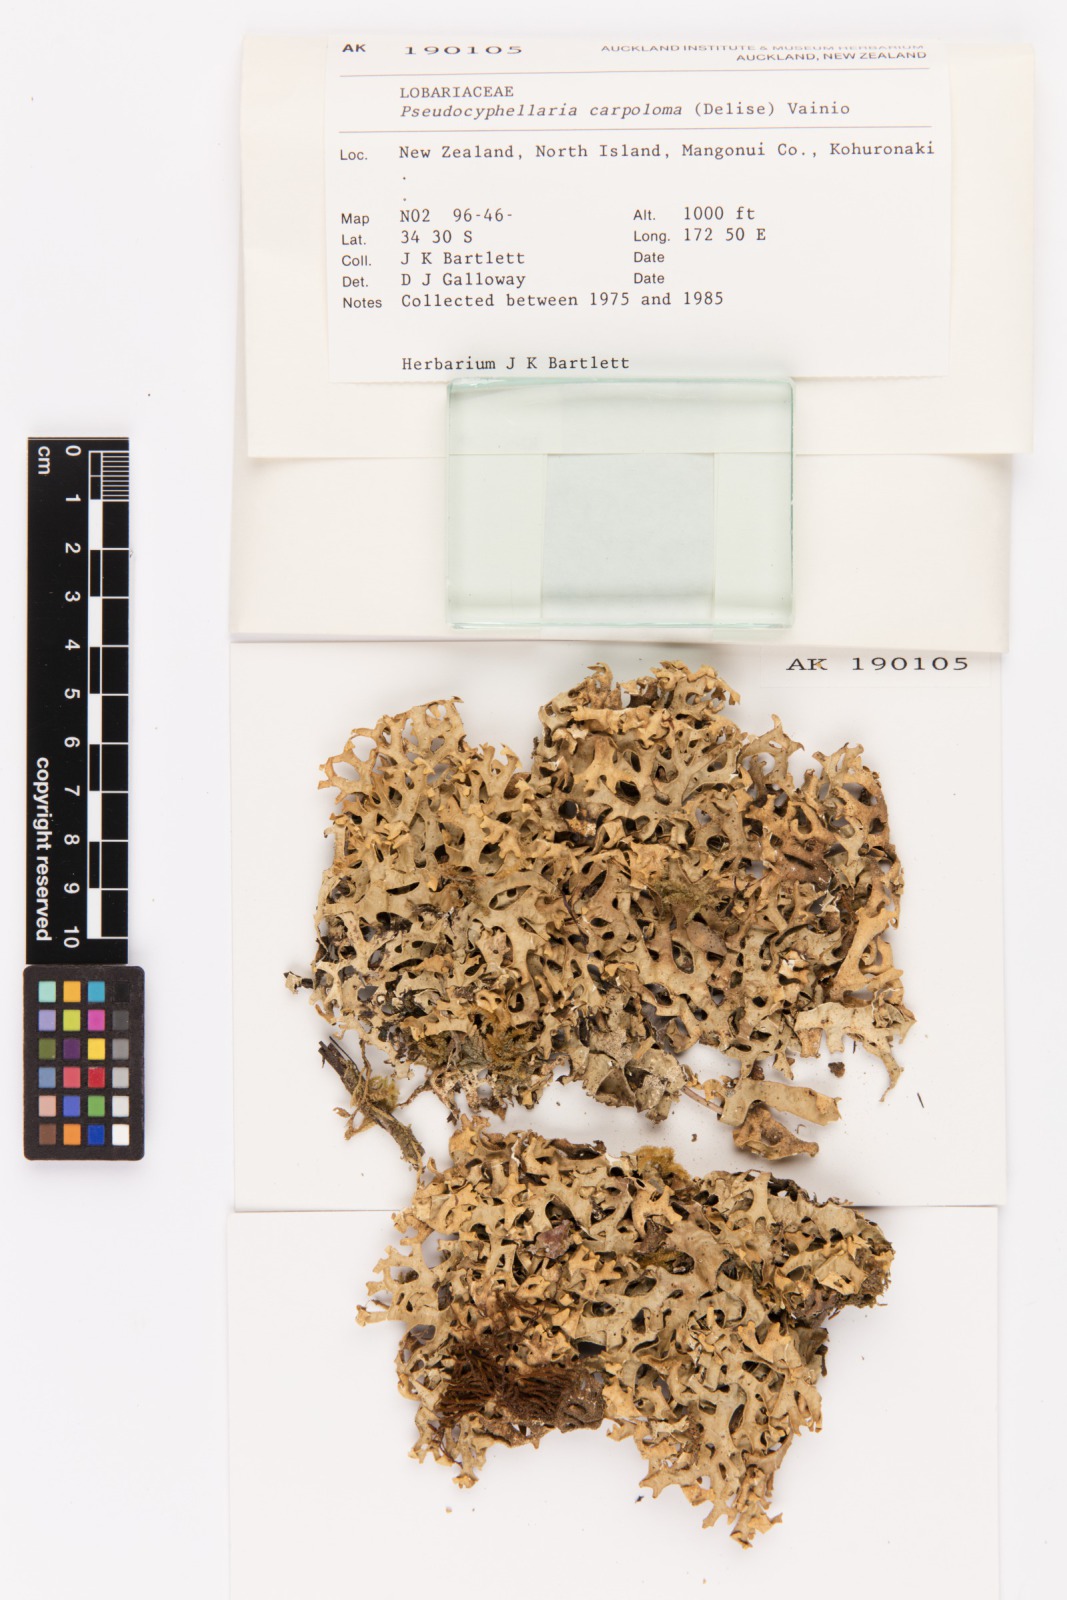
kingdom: Fungi
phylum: Ascomycota
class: Lecanoromycetes
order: Peltigerales
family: Lobariaceae
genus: Pseudocyphellaria
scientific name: Pseudocyphellaria carpoloma
